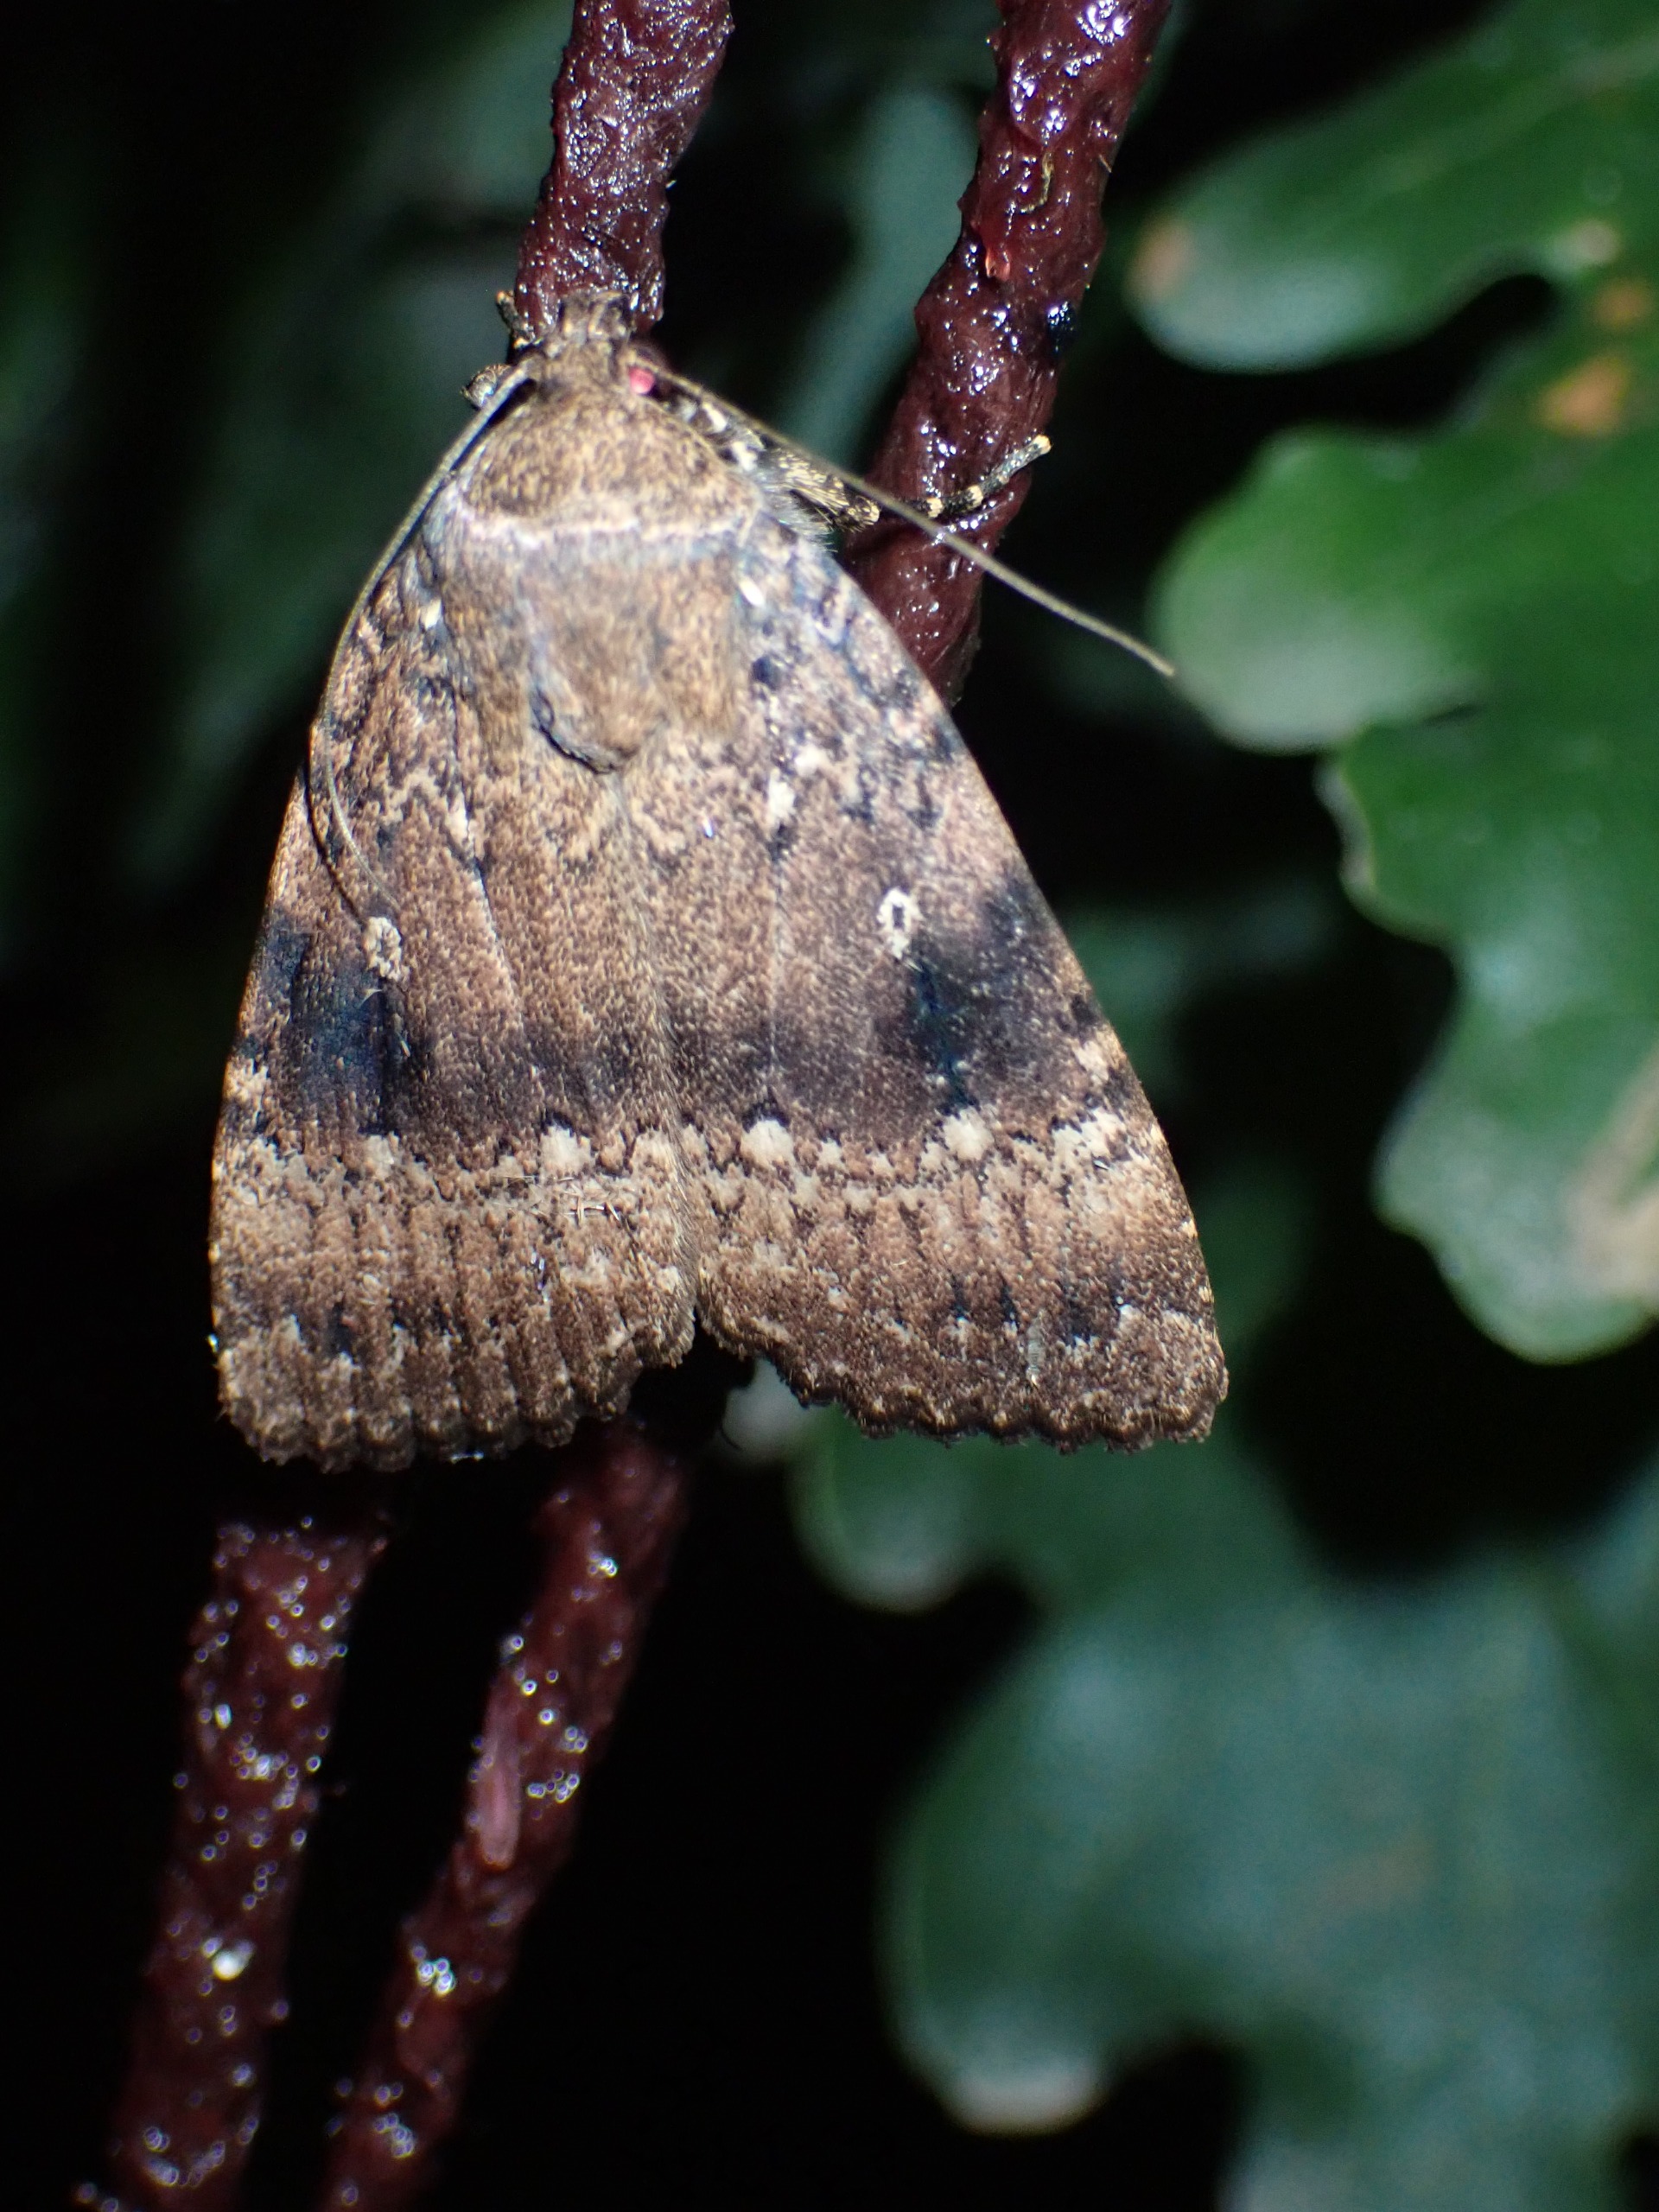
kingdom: Animalia
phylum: Arthropoda
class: Insecta
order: Lepidoptera
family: Noctuidae
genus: Amphipyra
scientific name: Amphipyra pyramidea
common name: Pyramideugle
